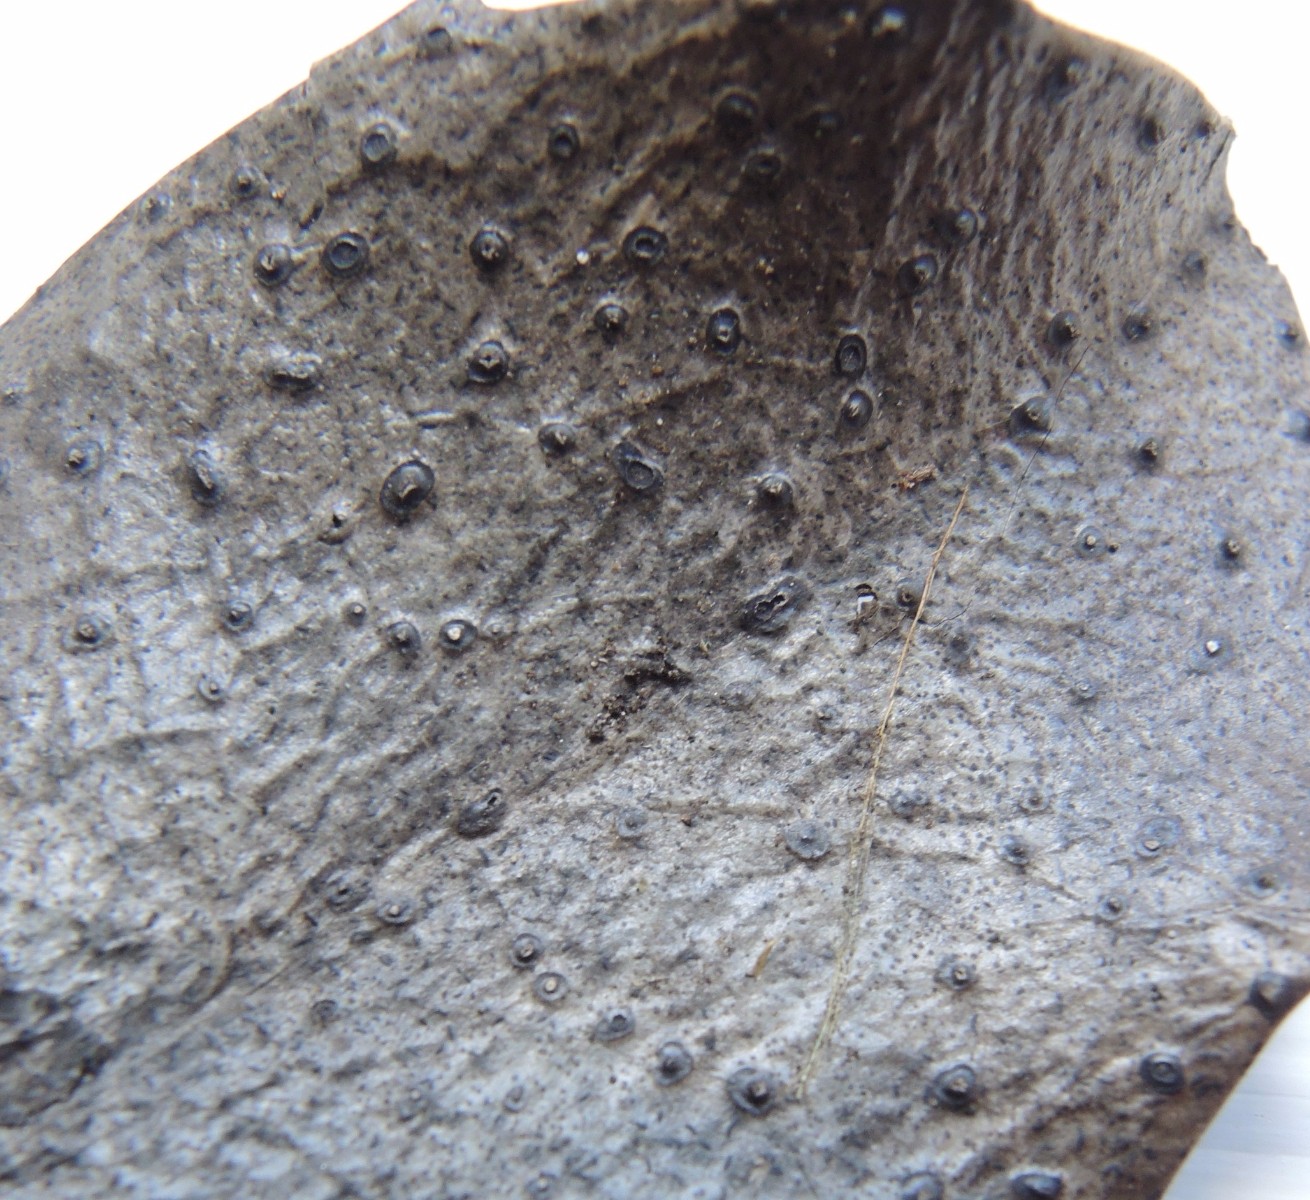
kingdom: Fungi
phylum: Ascomycota
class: Leotiomycetes
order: Phacidiales
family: Phacidiaceae
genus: Phacidium
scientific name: Phacidium lauri
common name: kristtorn-tandskive
